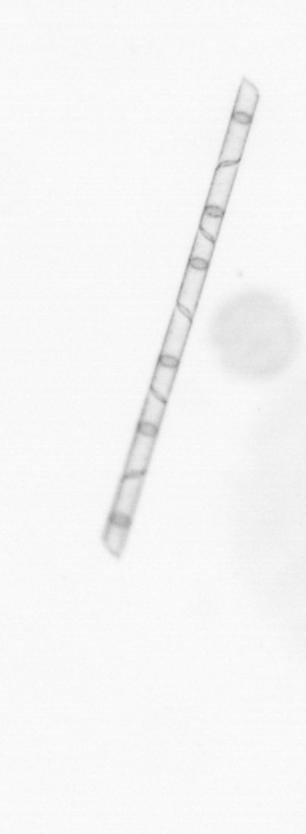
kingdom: Chromista
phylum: Ochrophyta
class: Bacillariophyceae
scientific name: Bacillariophyceae
